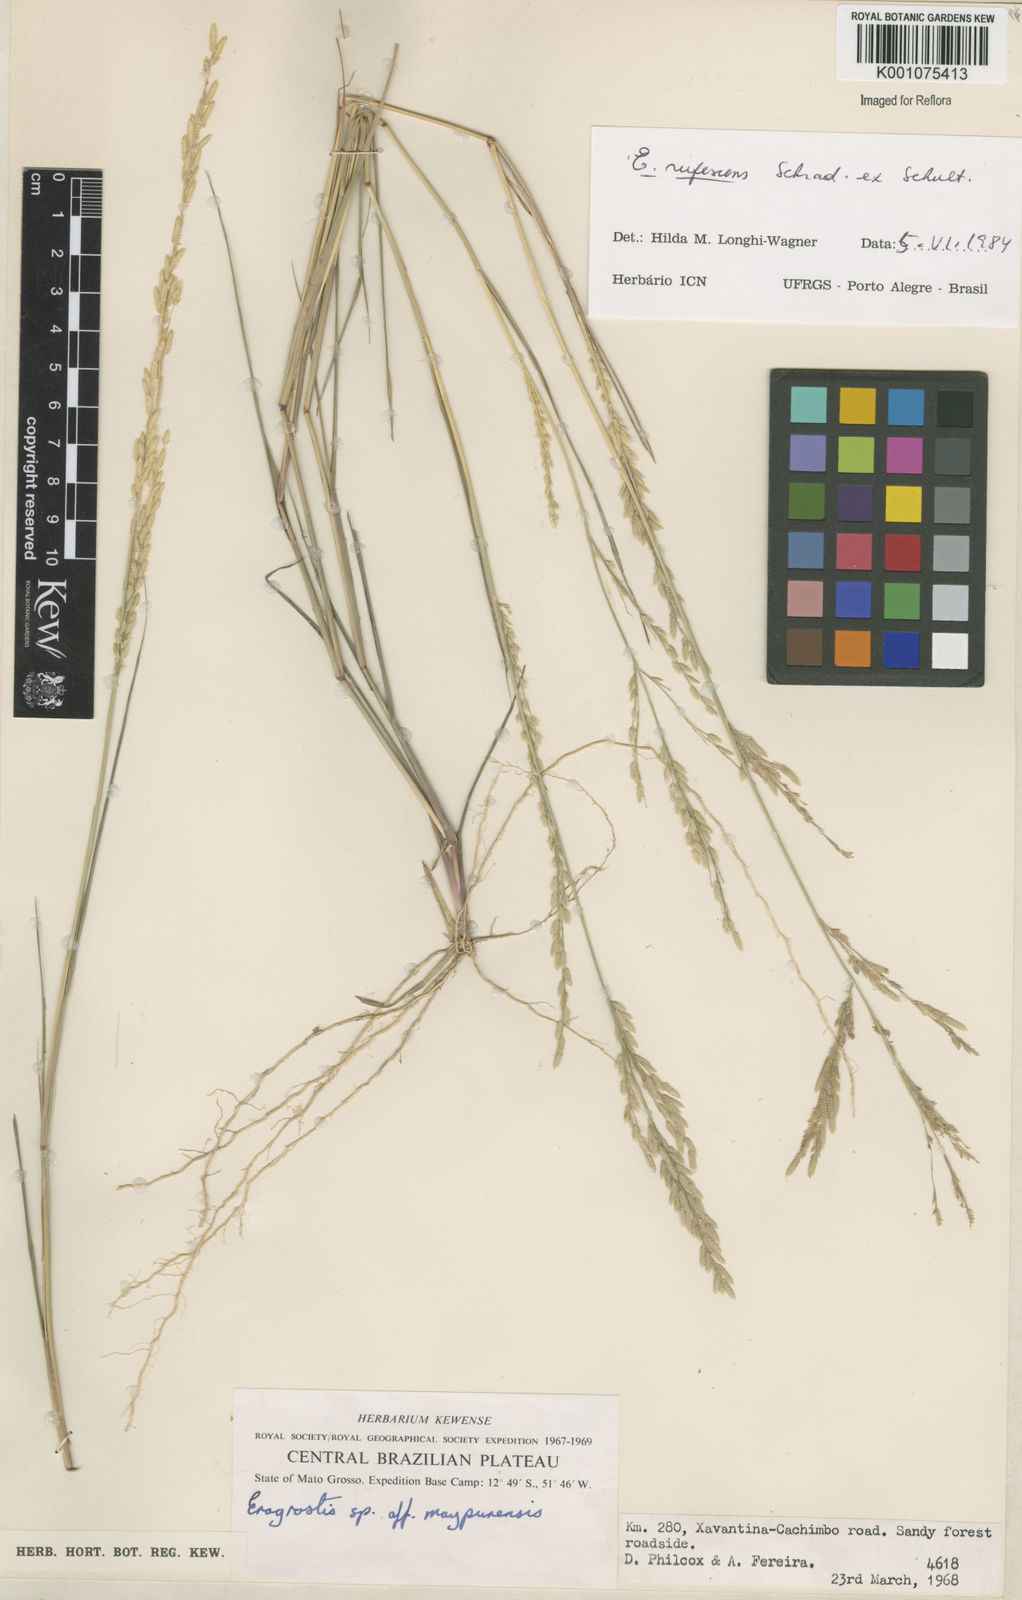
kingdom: Plantae
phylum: Tracheophyta
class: Liliopsida
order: Poales
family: Poaceae
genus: Eragrostis
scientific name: Eragrostis rufescens
